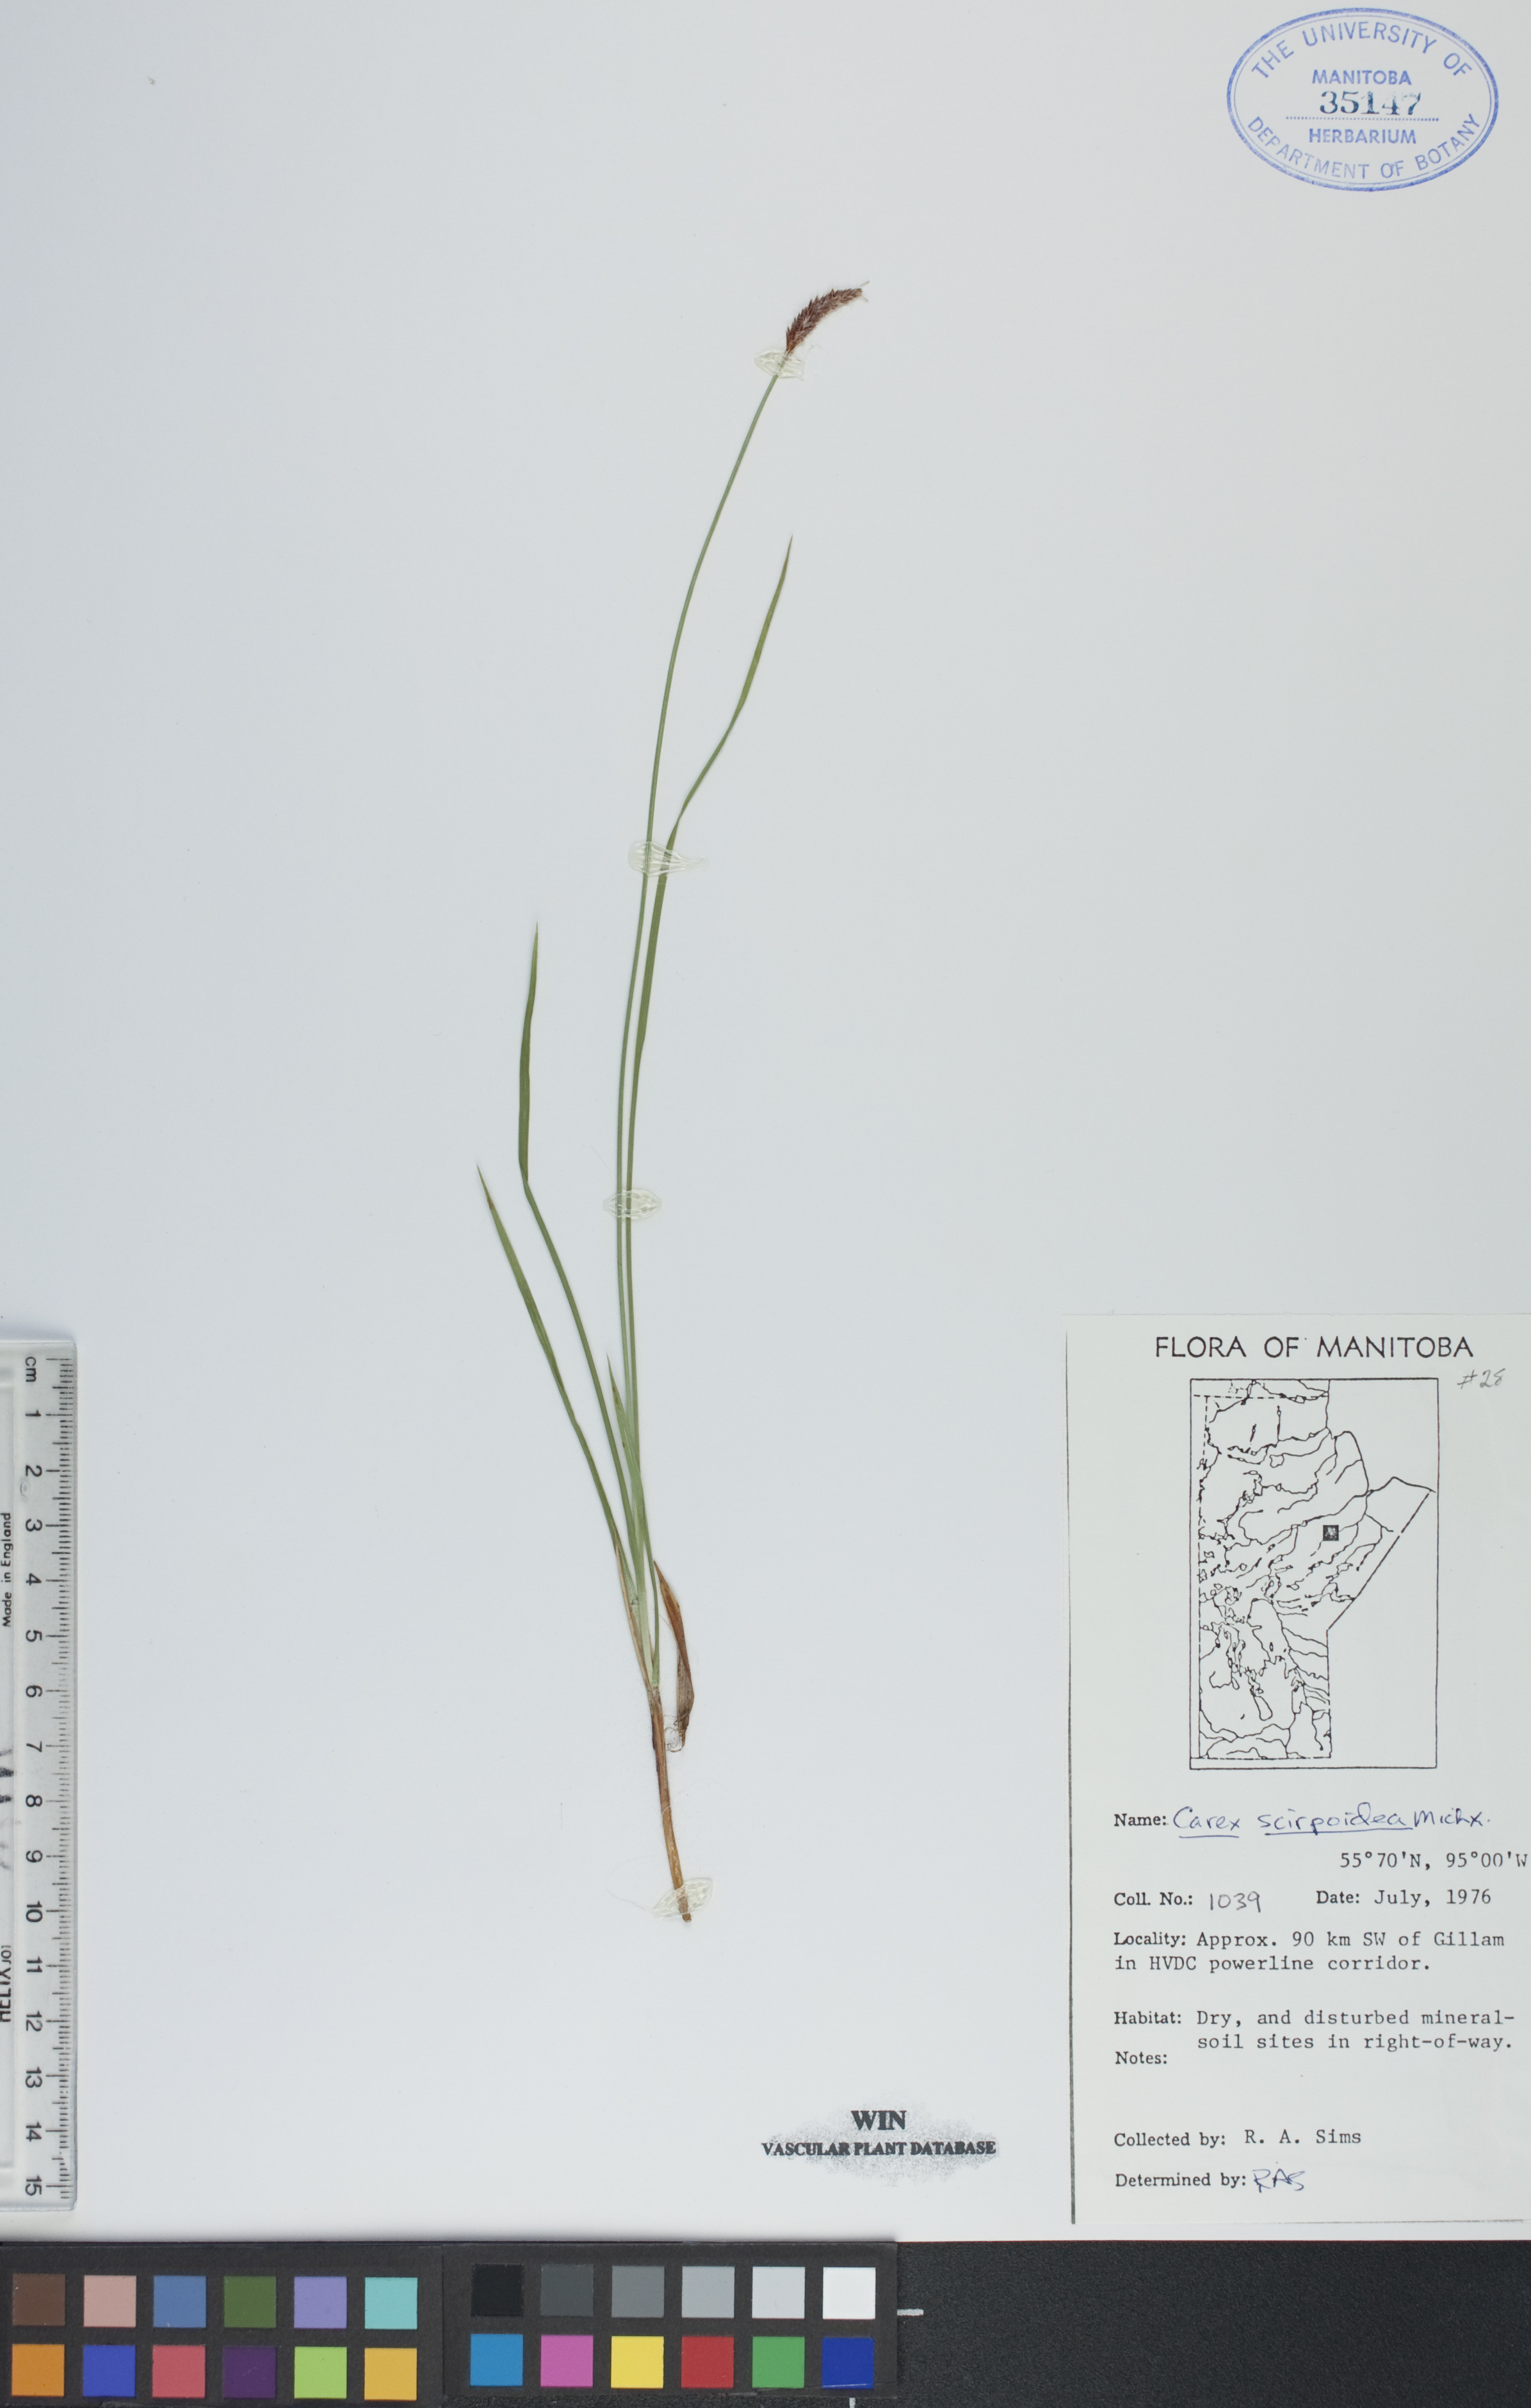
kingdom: Plantae
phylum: Tracheophyta
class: Liliopsida
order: Poales
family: Cyperaceae
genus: Carex
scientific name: Carex scirpoidea
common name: Canada single-spike sedge
